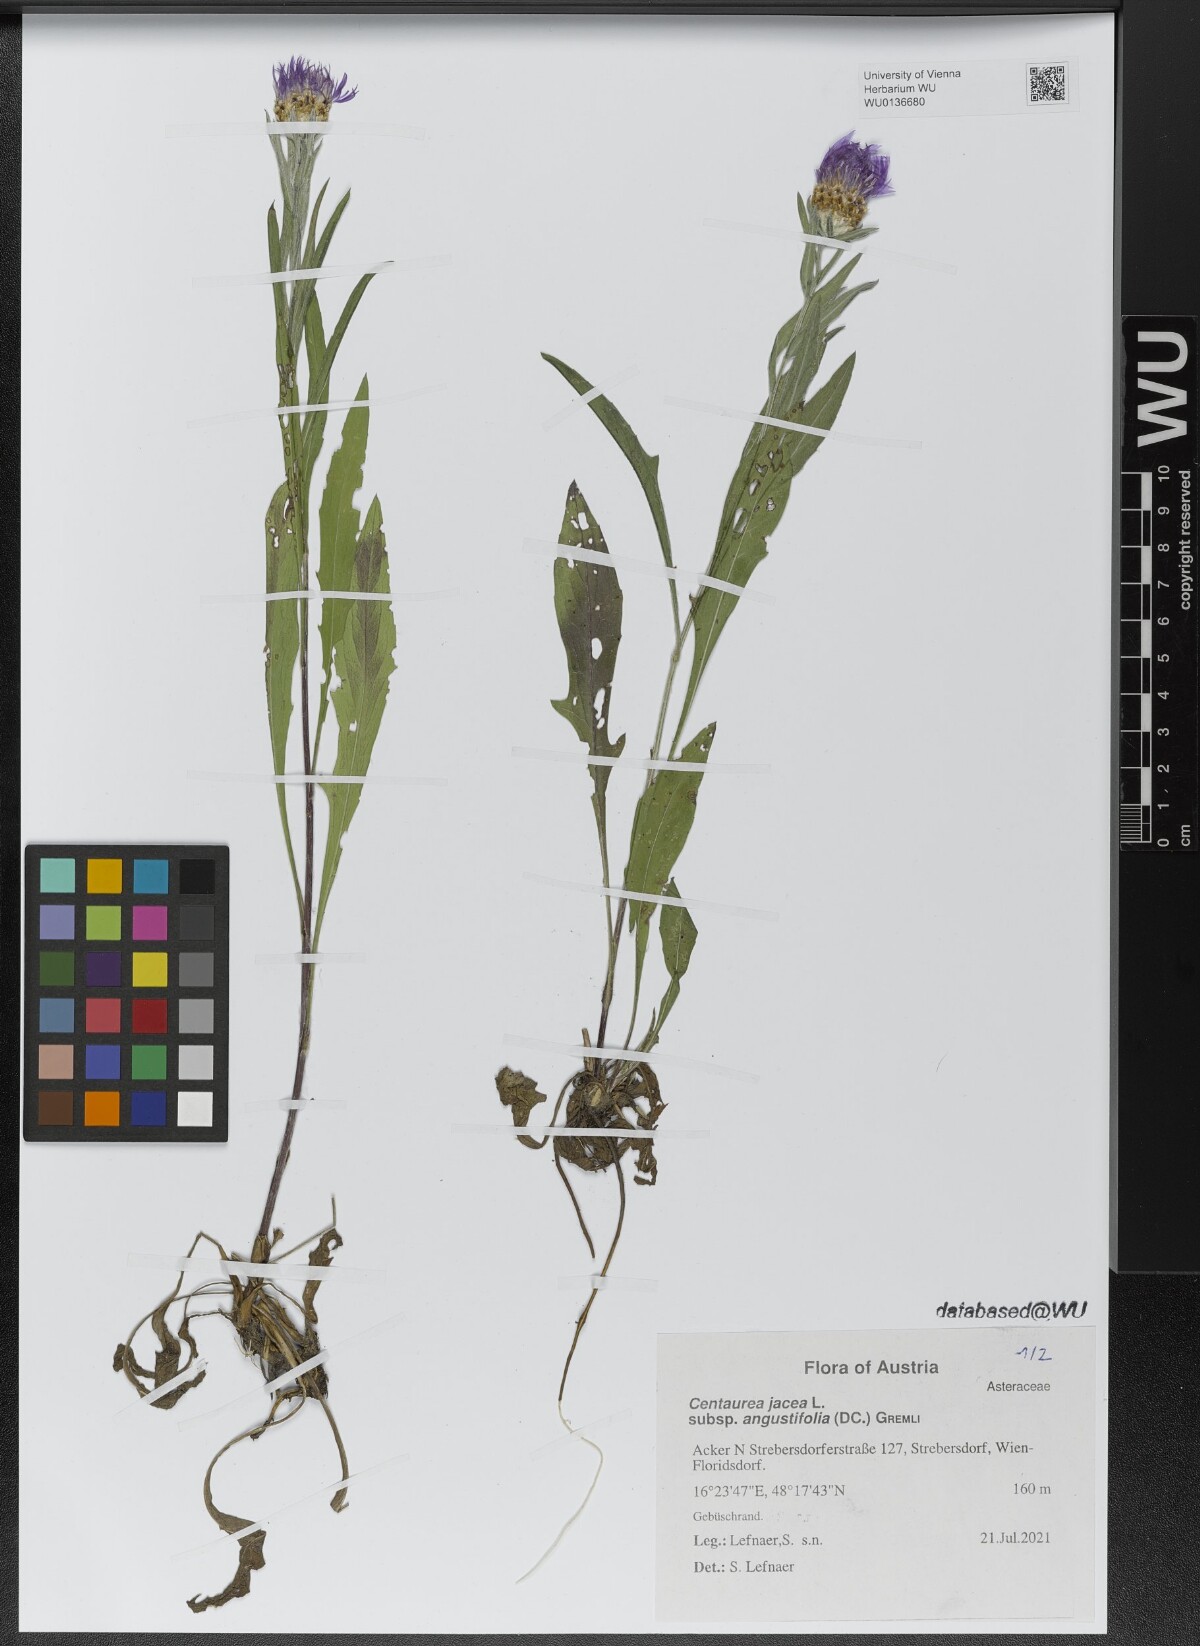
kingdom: Plantae
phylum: Tracheophyta
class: Magnoliopsida
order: Asterales
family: Asteraceae
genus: Centaurea
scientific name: Centaurea pannonica
